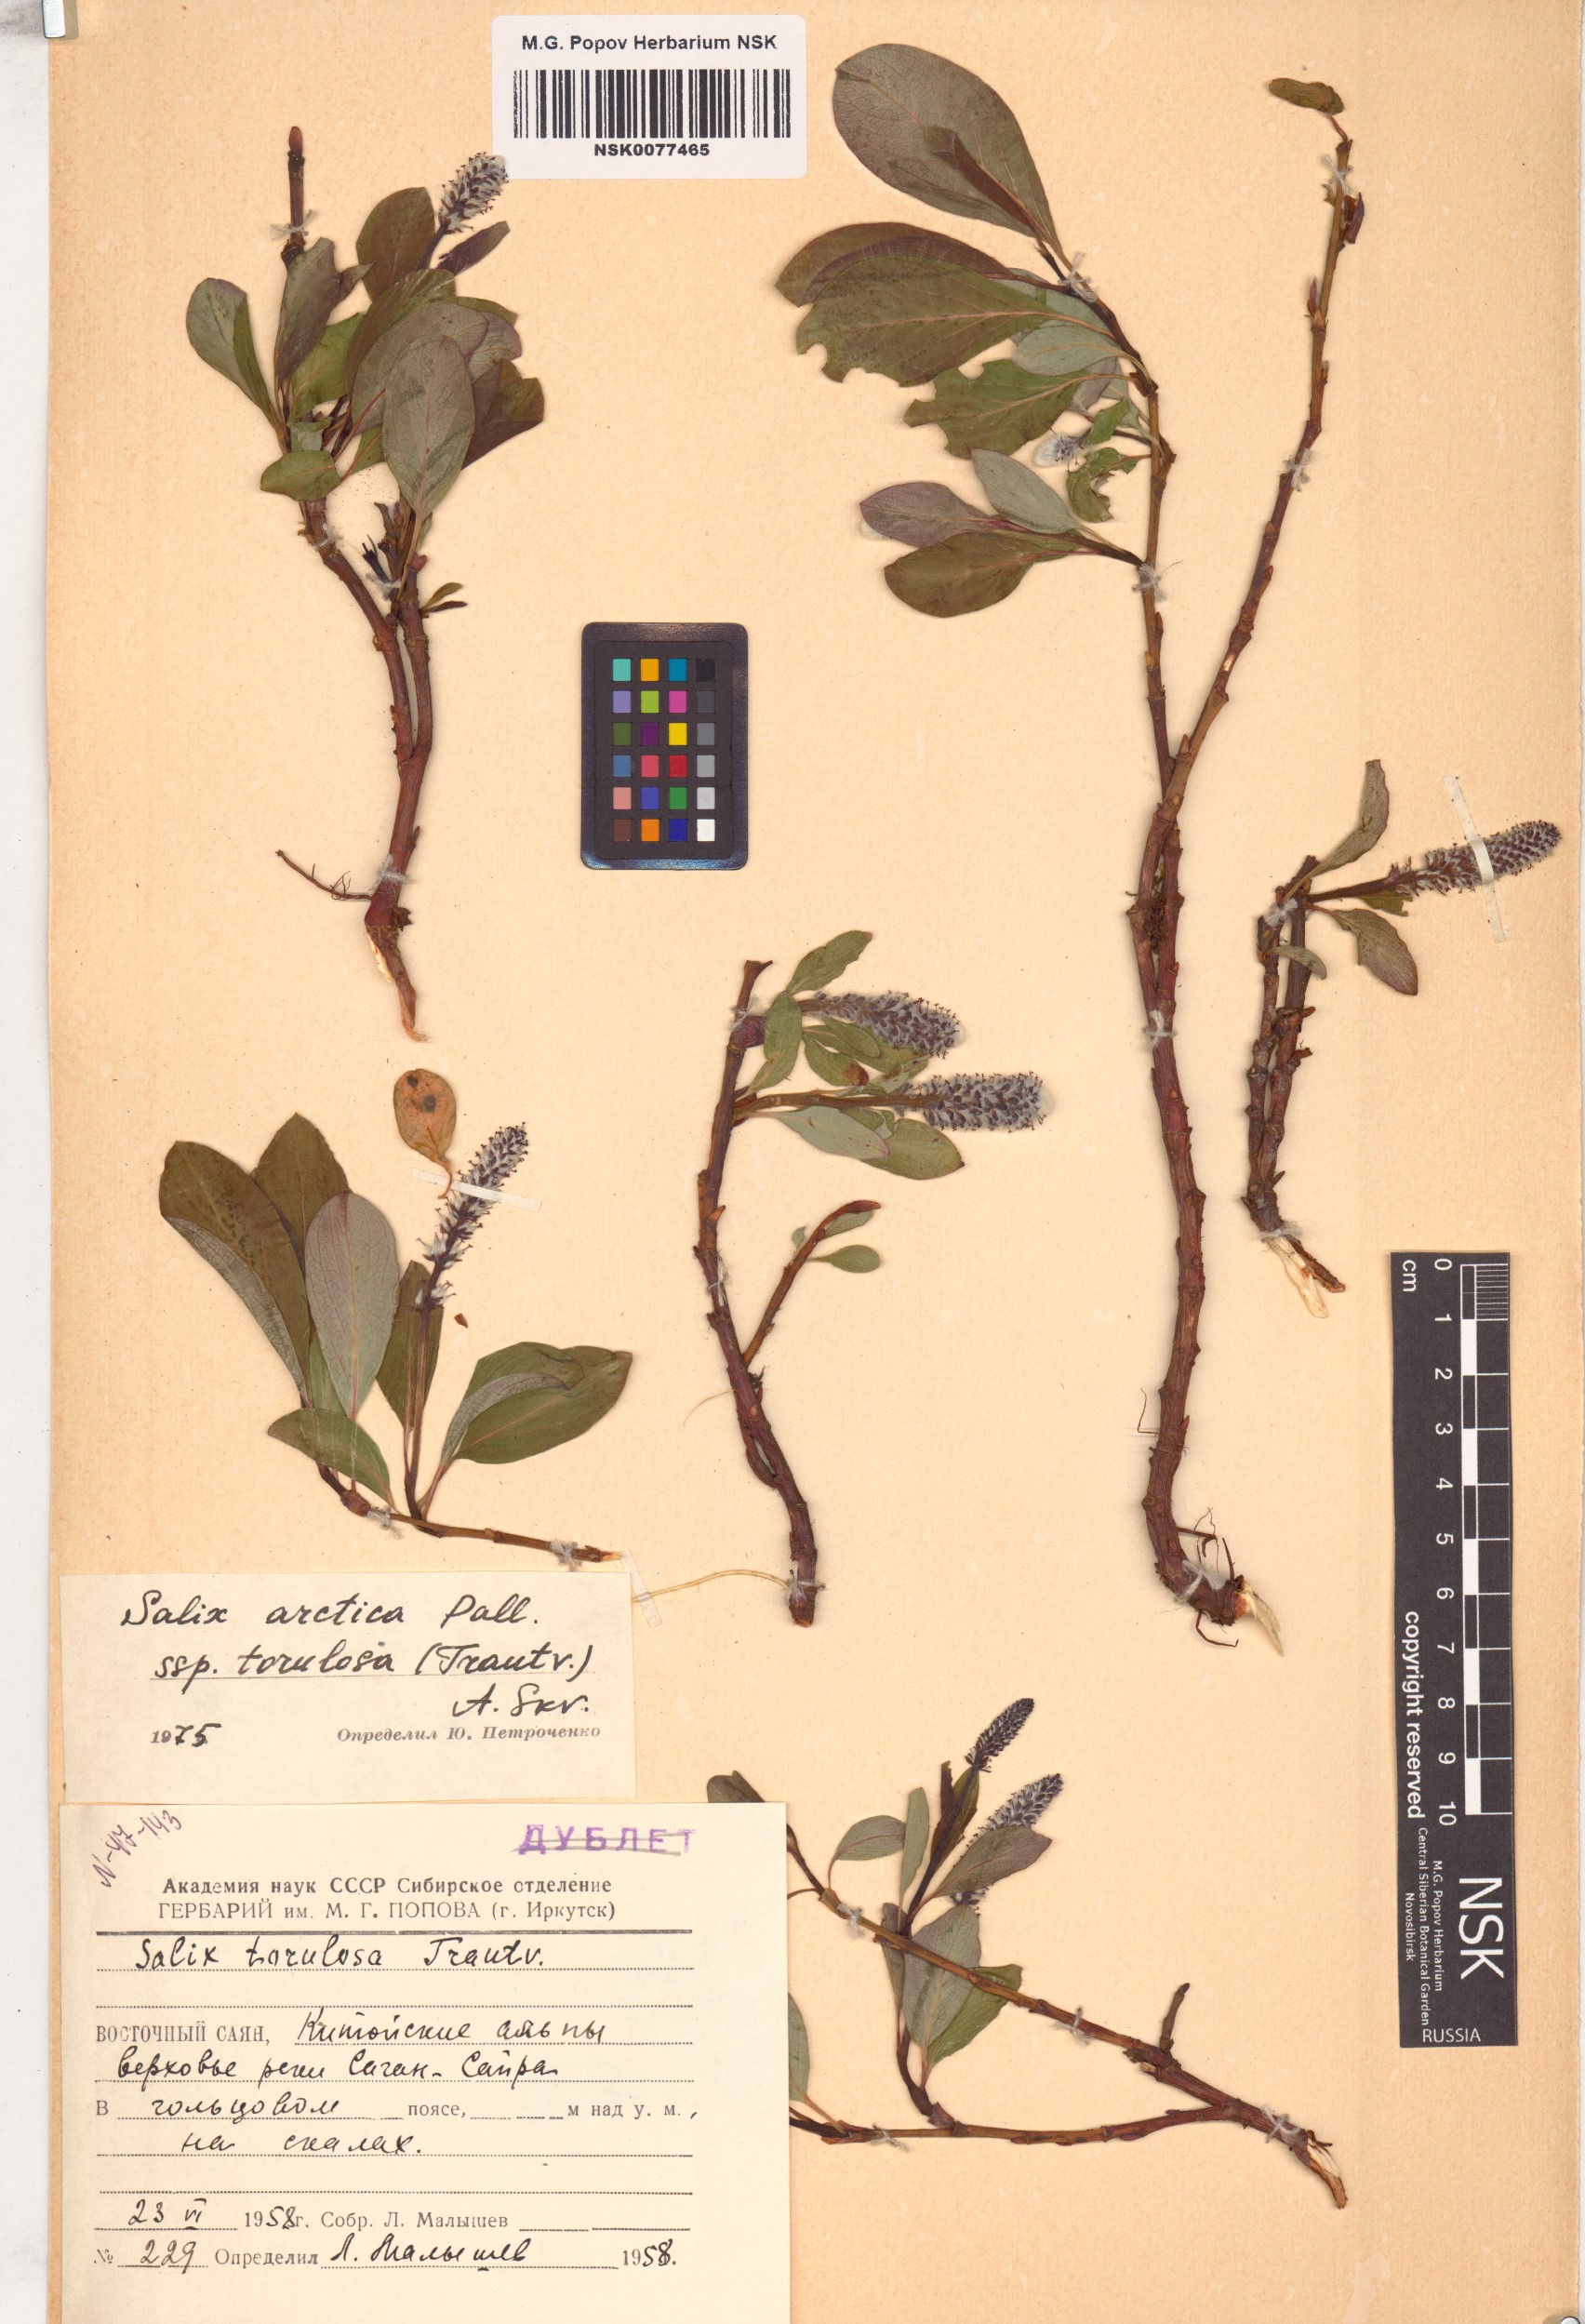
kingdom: Plantae
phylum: Tracheophyta
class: Magnoliopsida
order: Malpighiales
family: Salicaceae
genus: Salix
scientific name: Salix arctica
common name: Arctic willow
